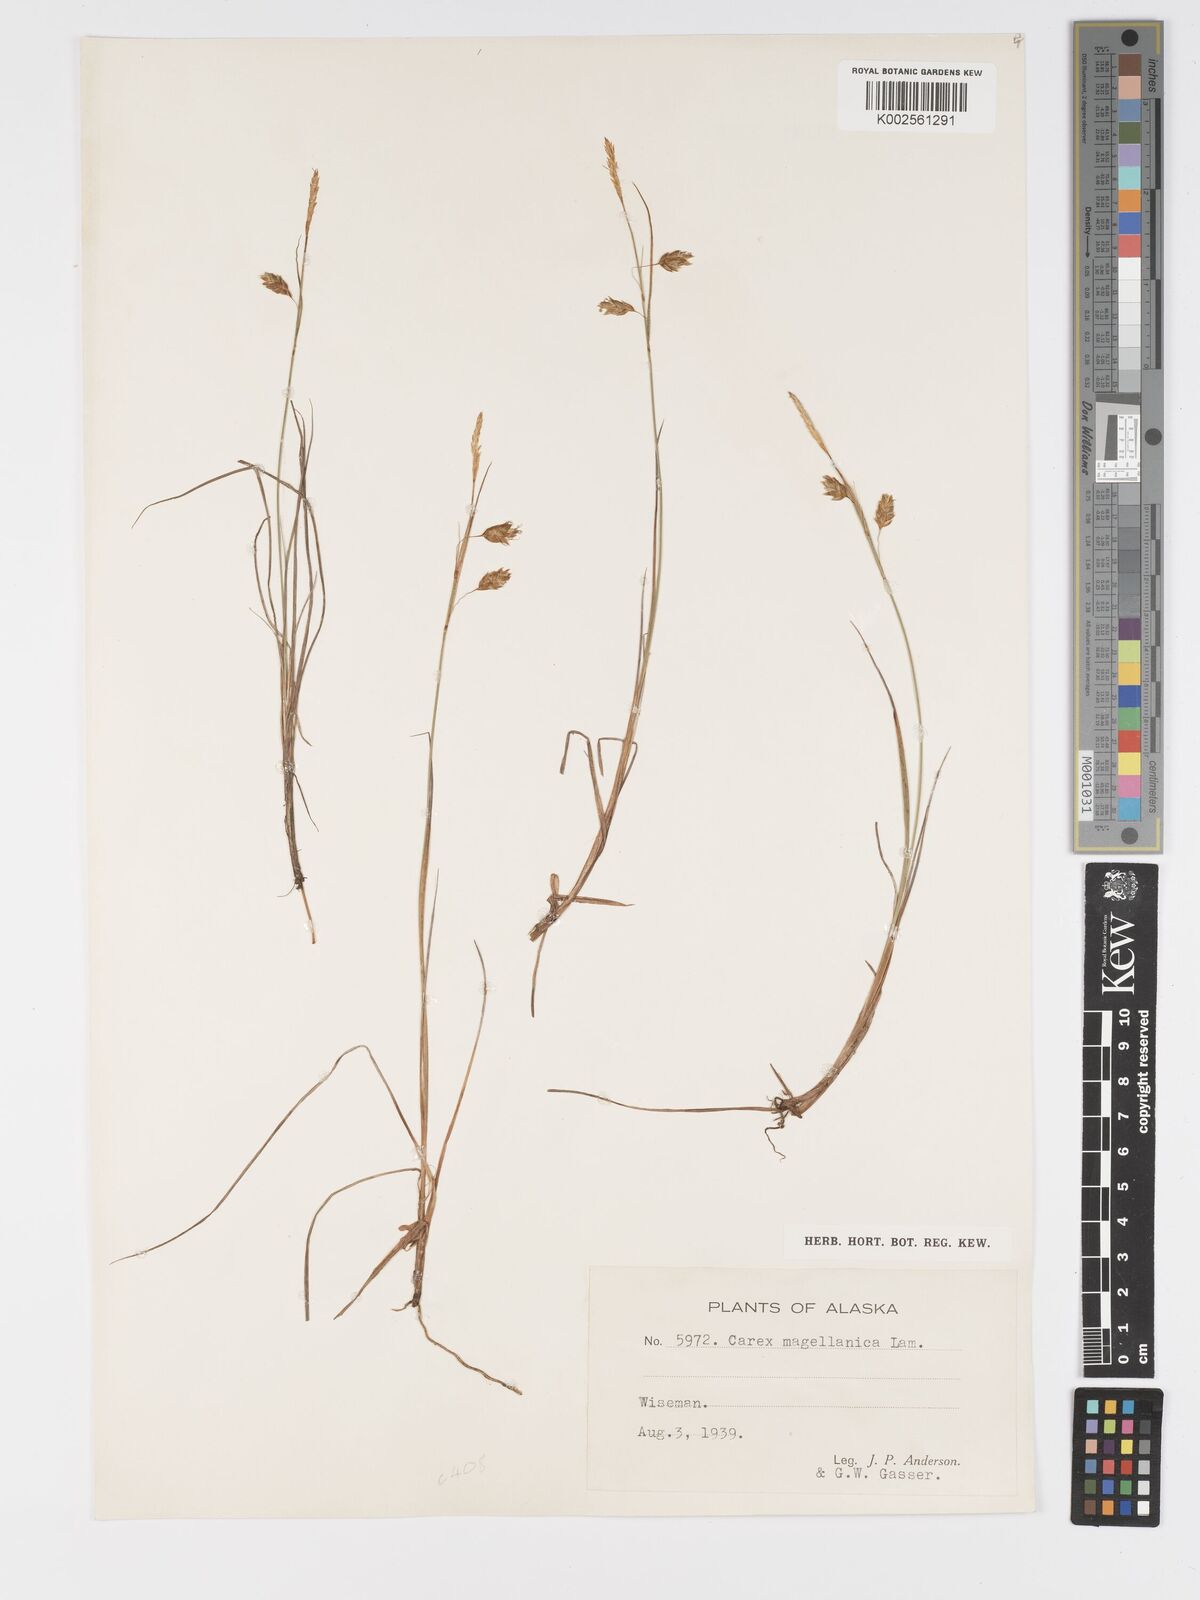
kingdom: Plantae
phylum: Tracheophyta
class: Liliopsida
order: Poales
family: Cyperaceae
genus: Carex
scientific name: Carex magellanica
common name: Bog sedge
